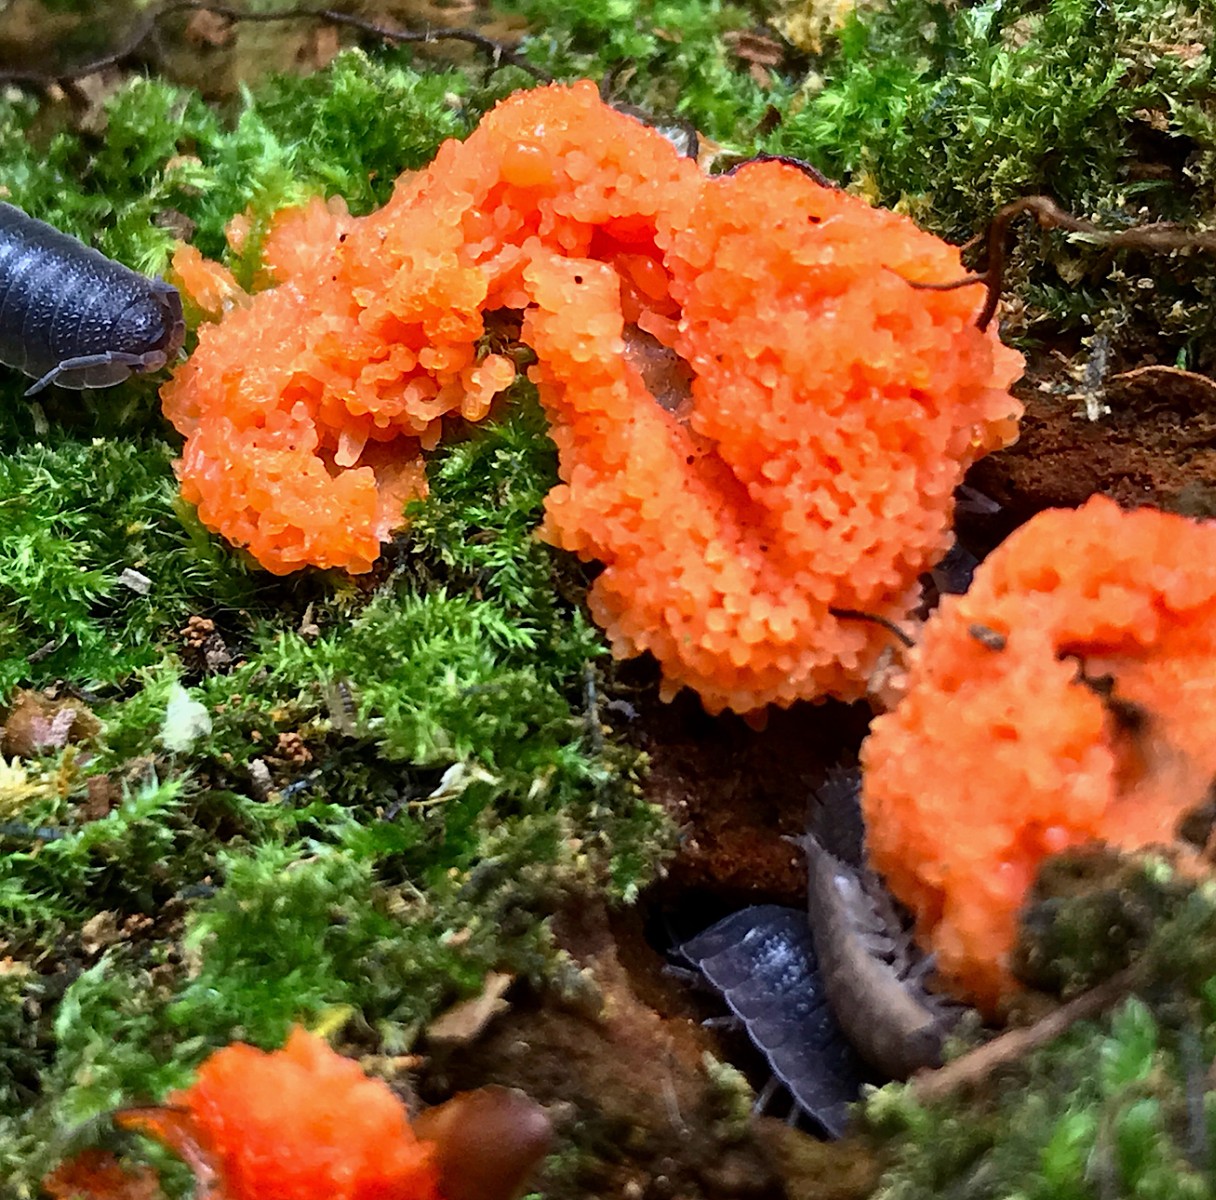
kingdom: Protozoa
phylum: Mycetozoa
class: Myxomycetes
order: Cribrariales
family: Tubiferaceae
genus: Tubifera
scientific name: Tubifera ferruginosa
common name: kanel-støvrør
